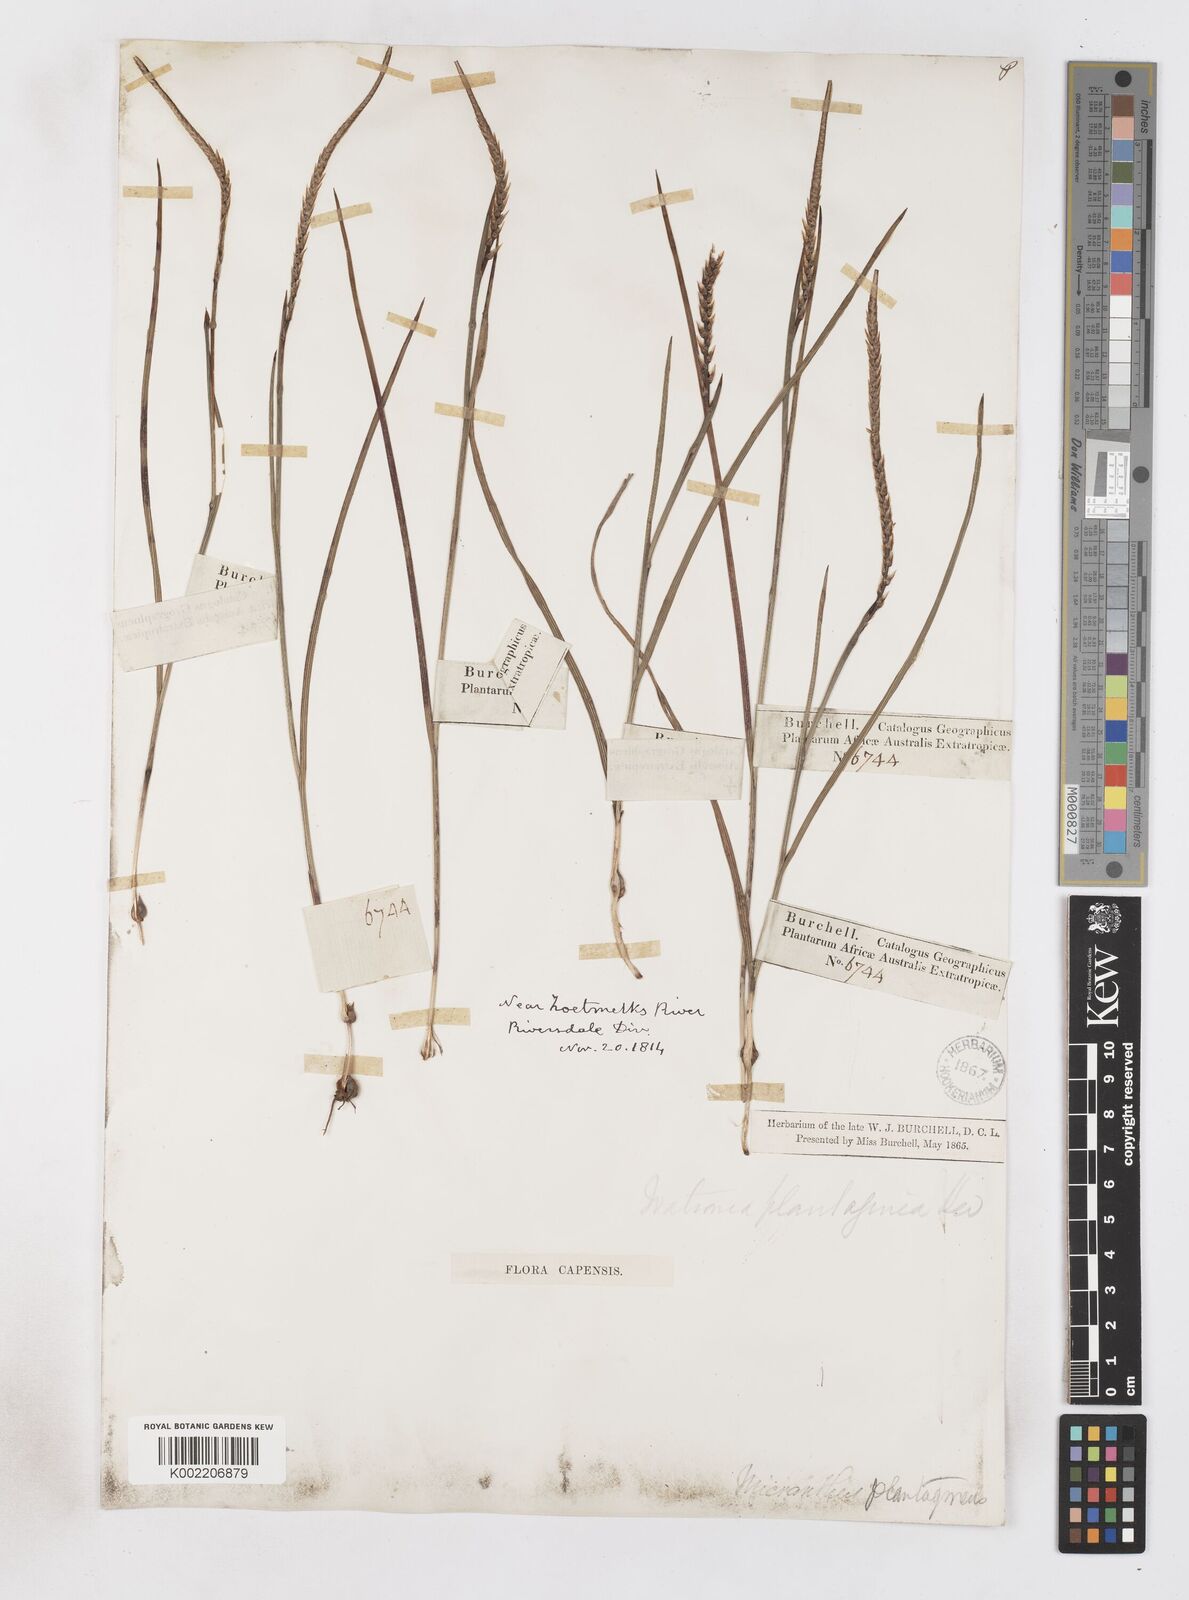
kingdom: Plantae
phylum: Tracheophyta
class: Liliopsida
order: Asparagales
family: Iridaceae
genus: Micranthus
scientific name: Micranthus plantagineus
